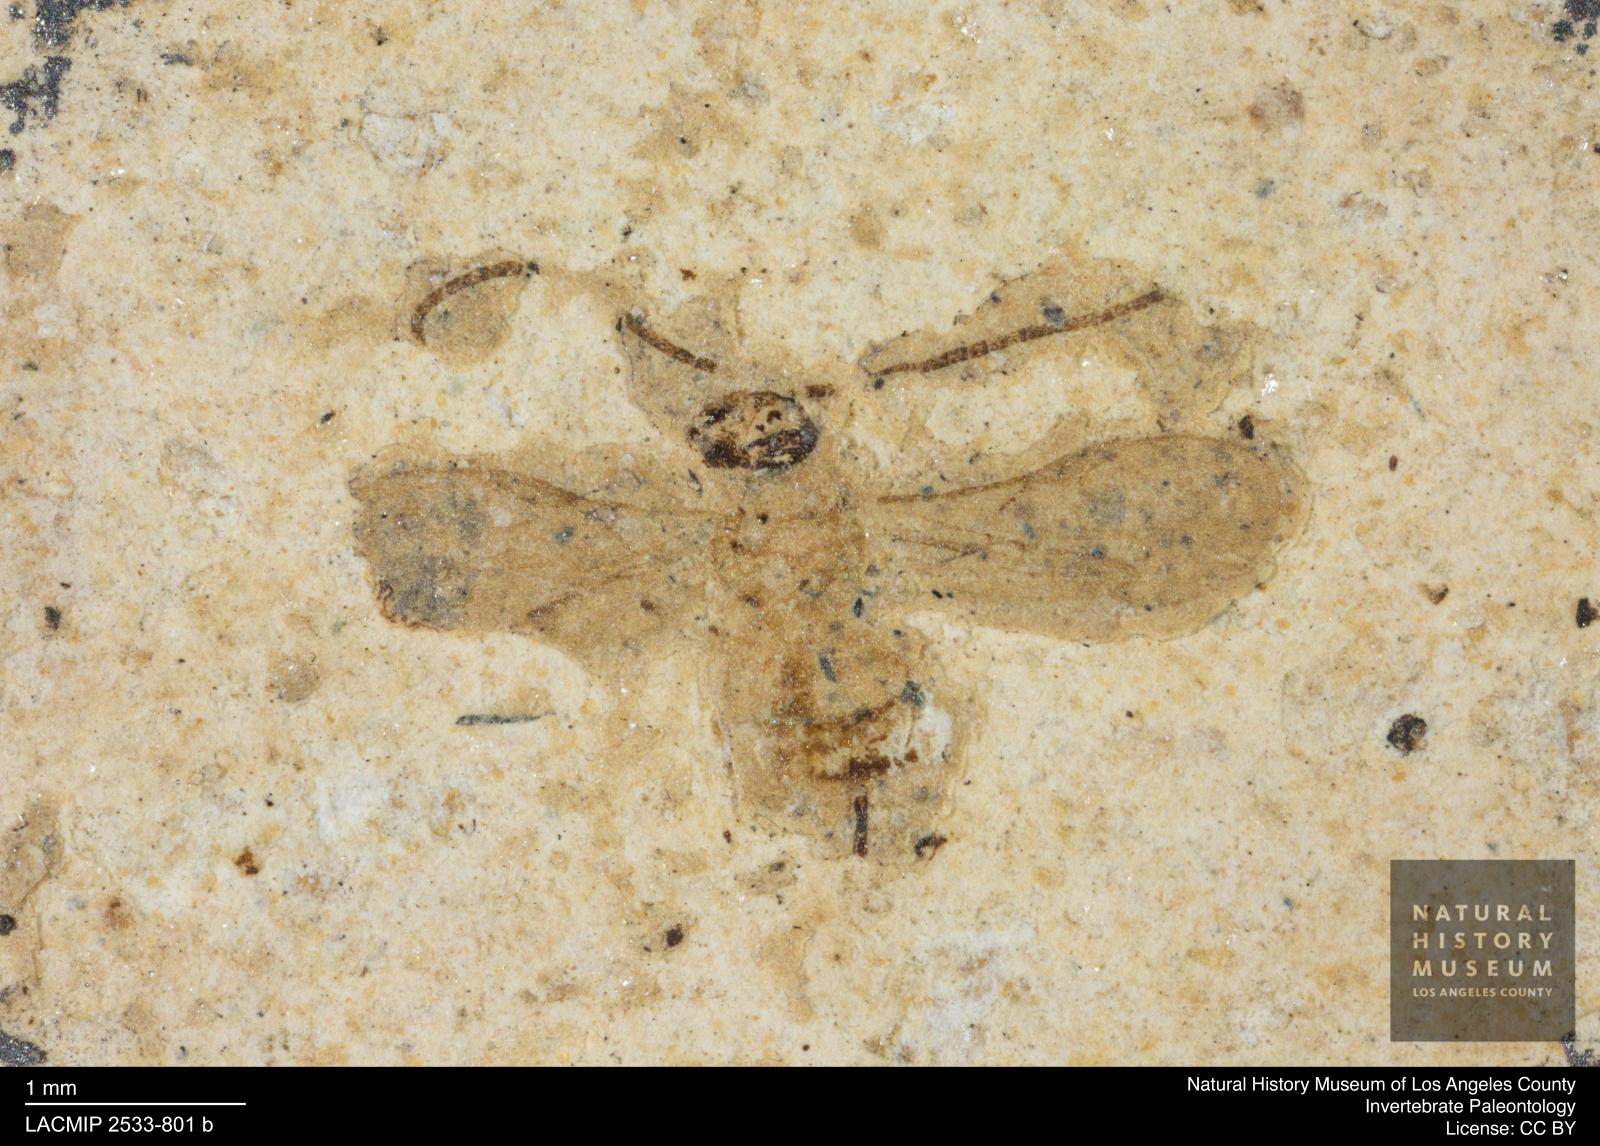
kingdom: Animalia
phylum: Arthropoda
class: Insecta
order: Hymenoptera
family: Braconidae
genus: Doryctes
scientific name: Doryctes rotundatus
